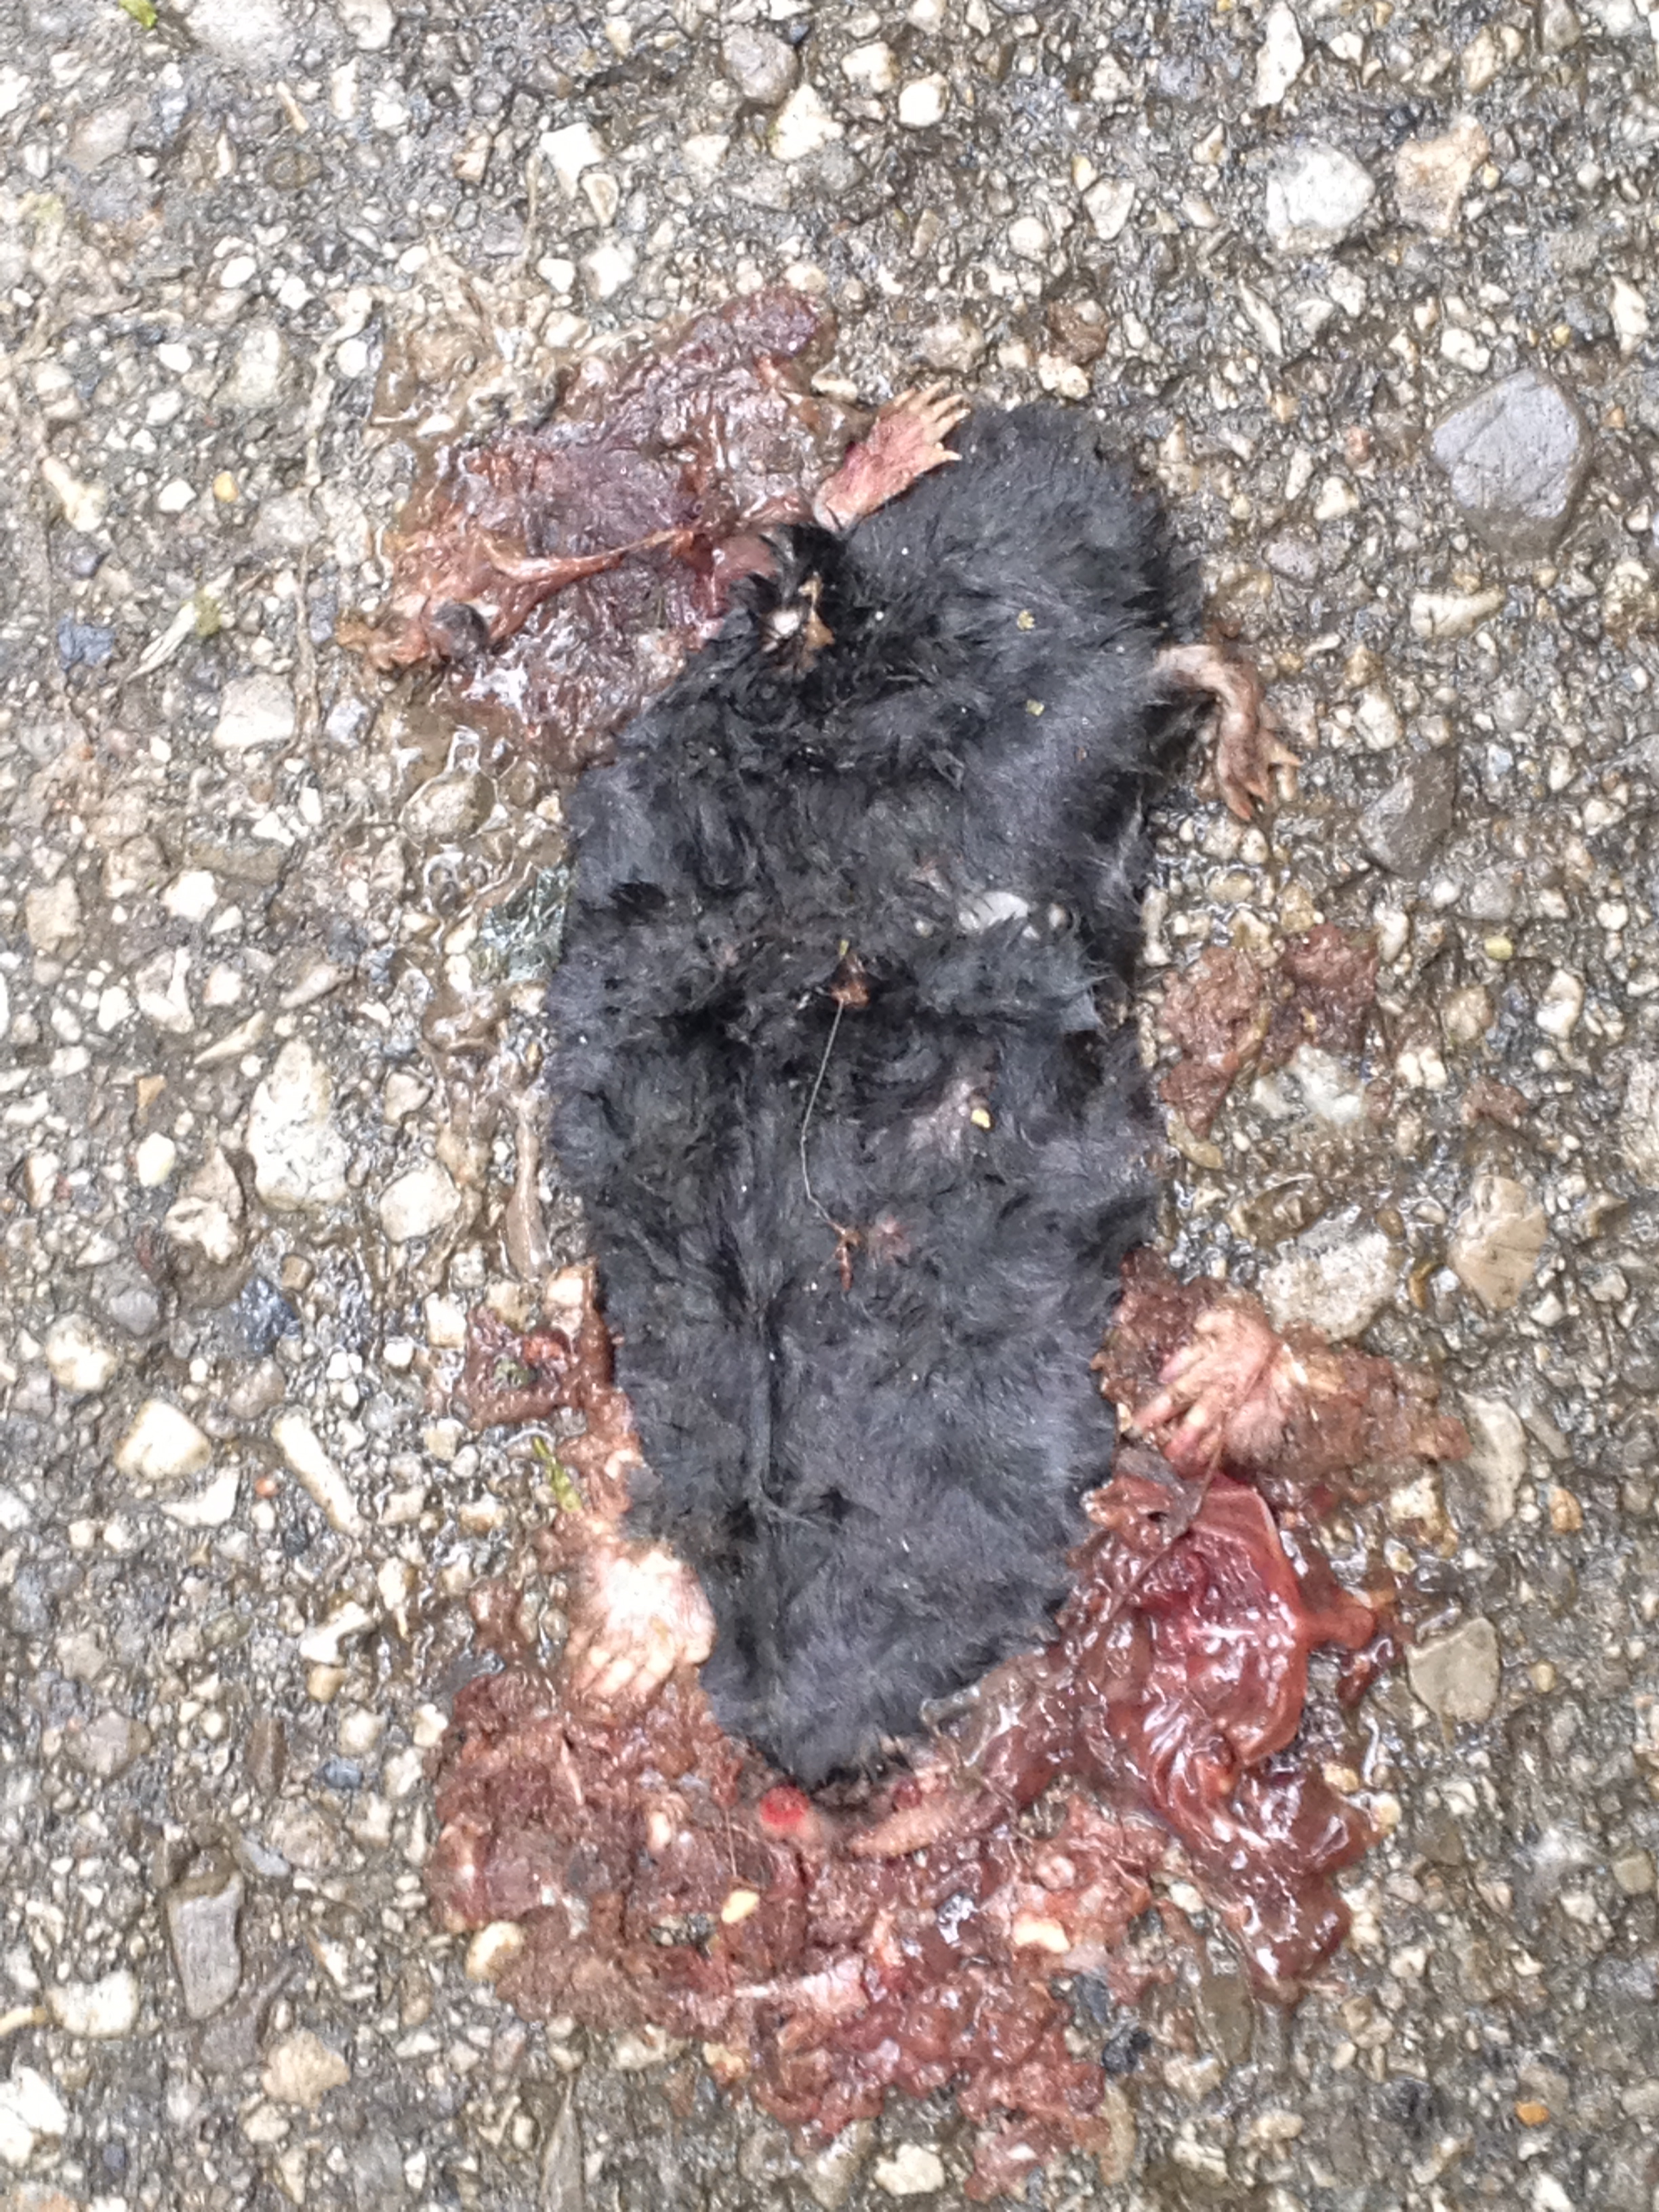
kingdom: Animalia
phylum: Chordata
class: Mammalia
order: Soricomorpha
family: Talpidae
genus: Talpa
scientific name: Talpa europaea
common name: European mole
